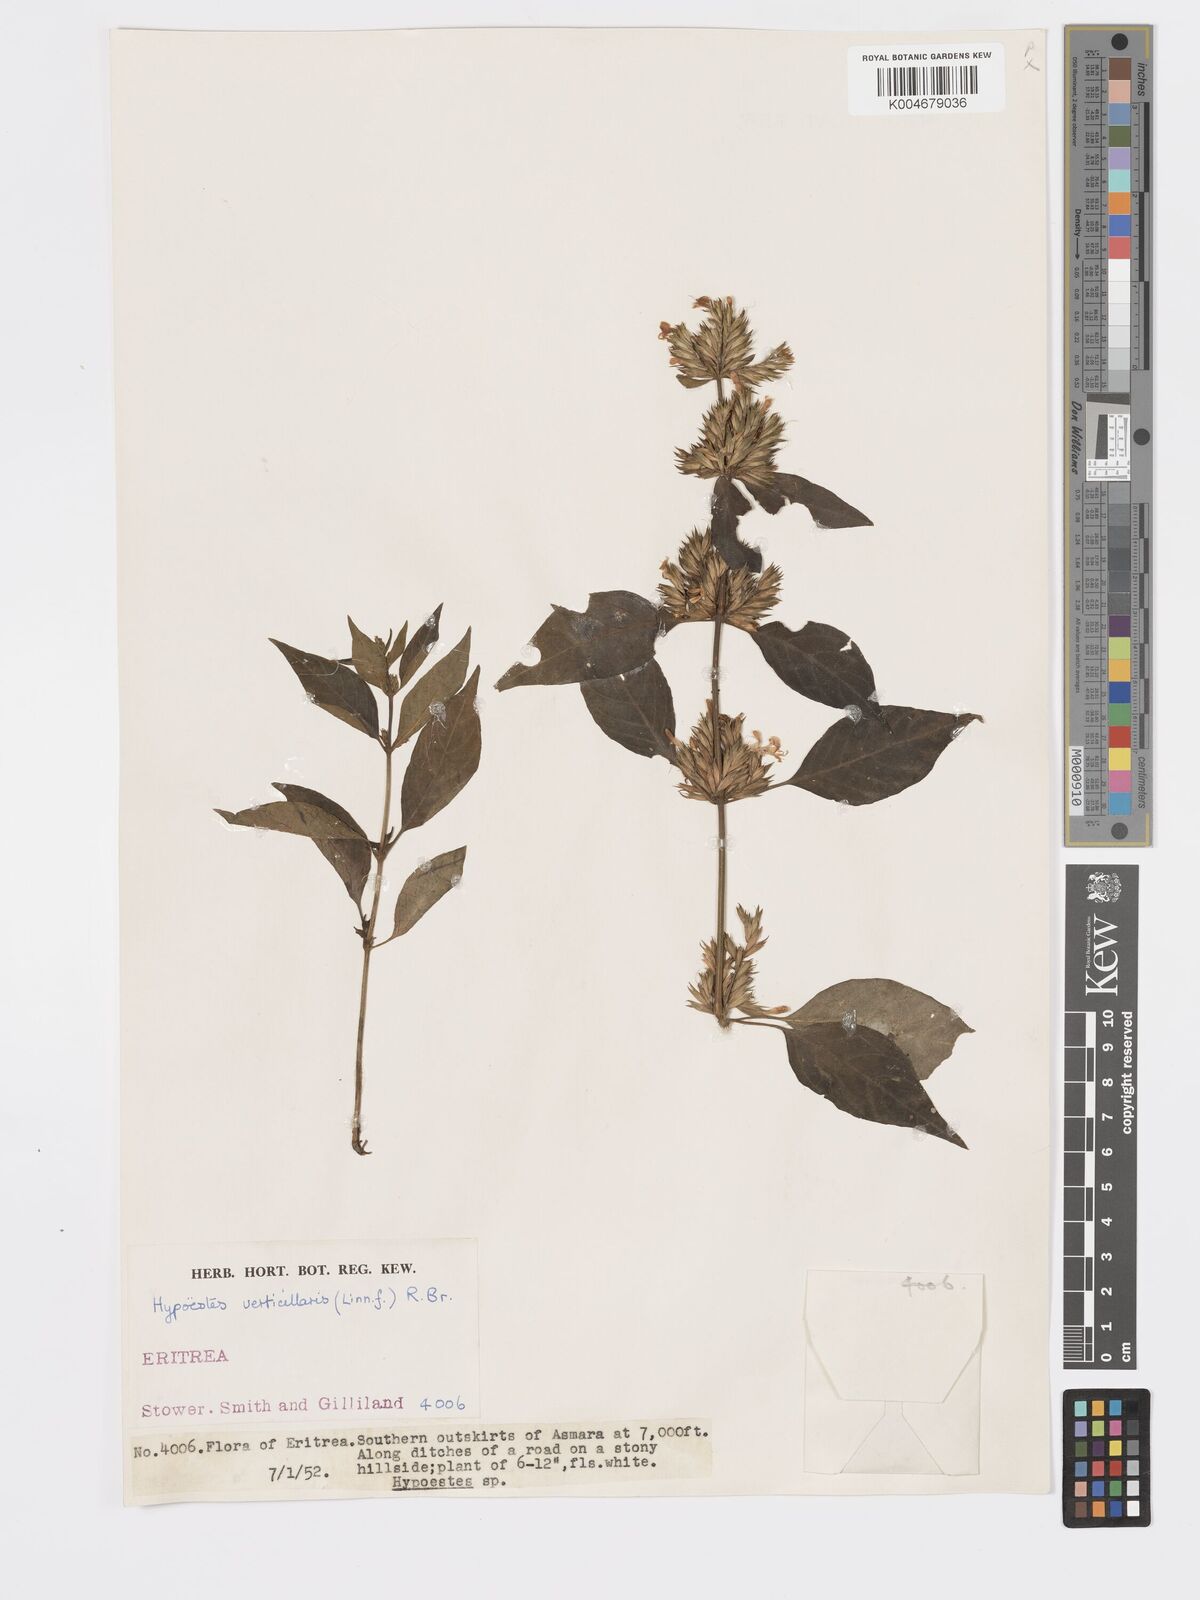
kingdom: Plantae
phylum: Tracheophyta
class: Magnoliopsida
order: Lamiales
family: Acanthaceae
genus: Hypoestes
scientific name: Hypoestes forskaolii
